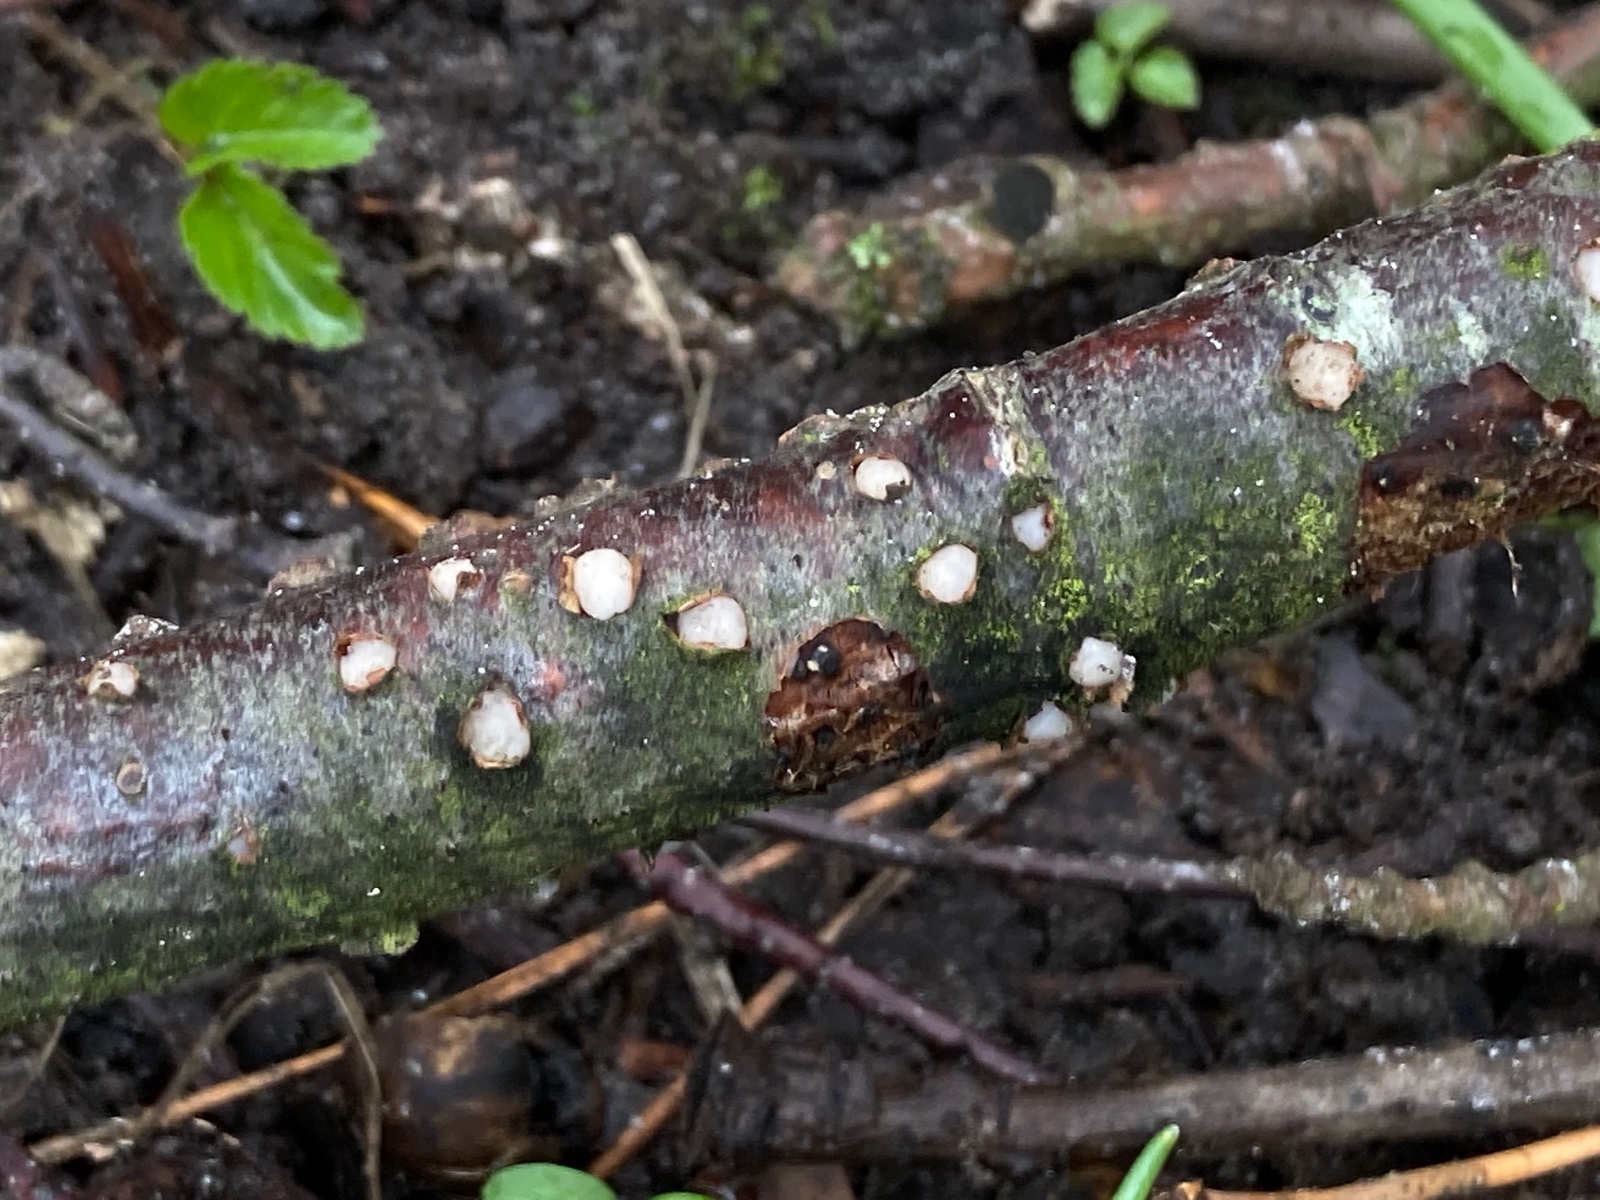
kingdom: Fungi
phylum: Basidiomycota
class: Pucciniomycetes
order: Platygloeales
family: Platygloeaceae
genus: Platygloea
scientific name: Platygloea disciformis
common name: linde-slimklat
